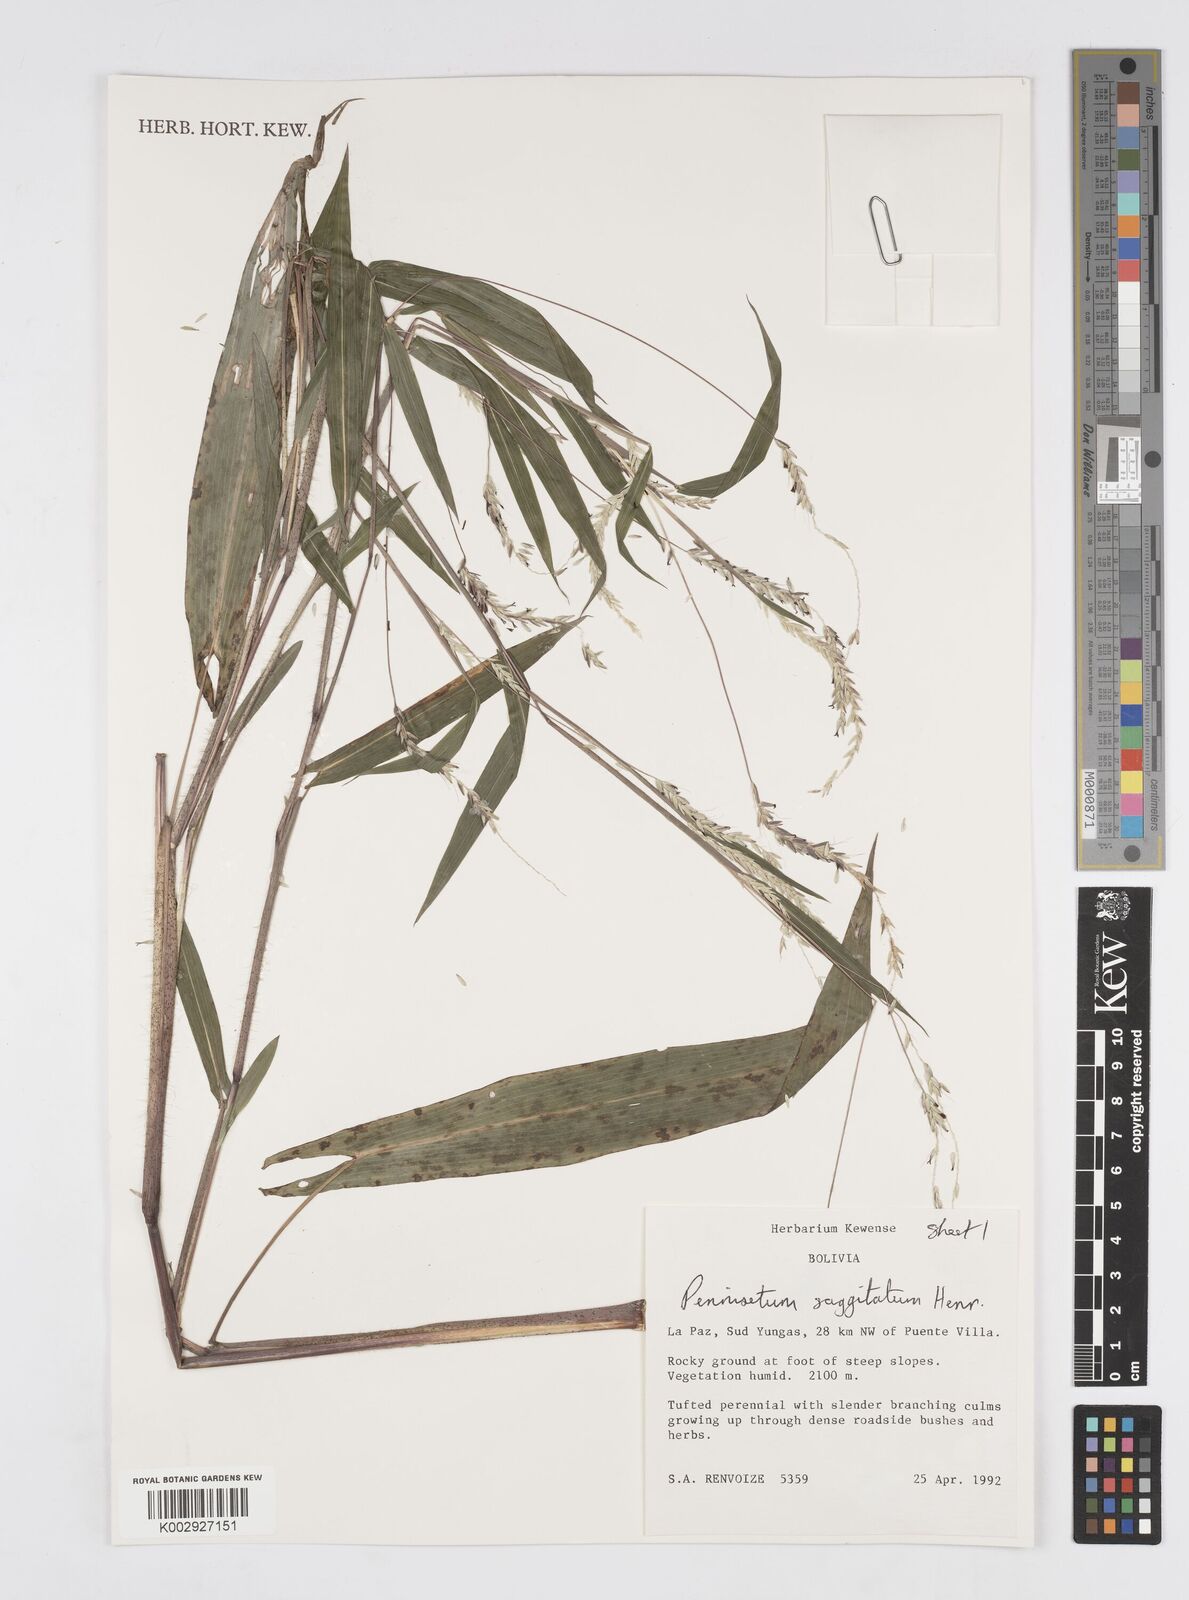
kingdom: Plantae
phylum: Tracheophyta
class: Liliopsida
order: Poales
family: Poaceae
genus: Cenchrus
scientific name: Cenchrus sagittatus
